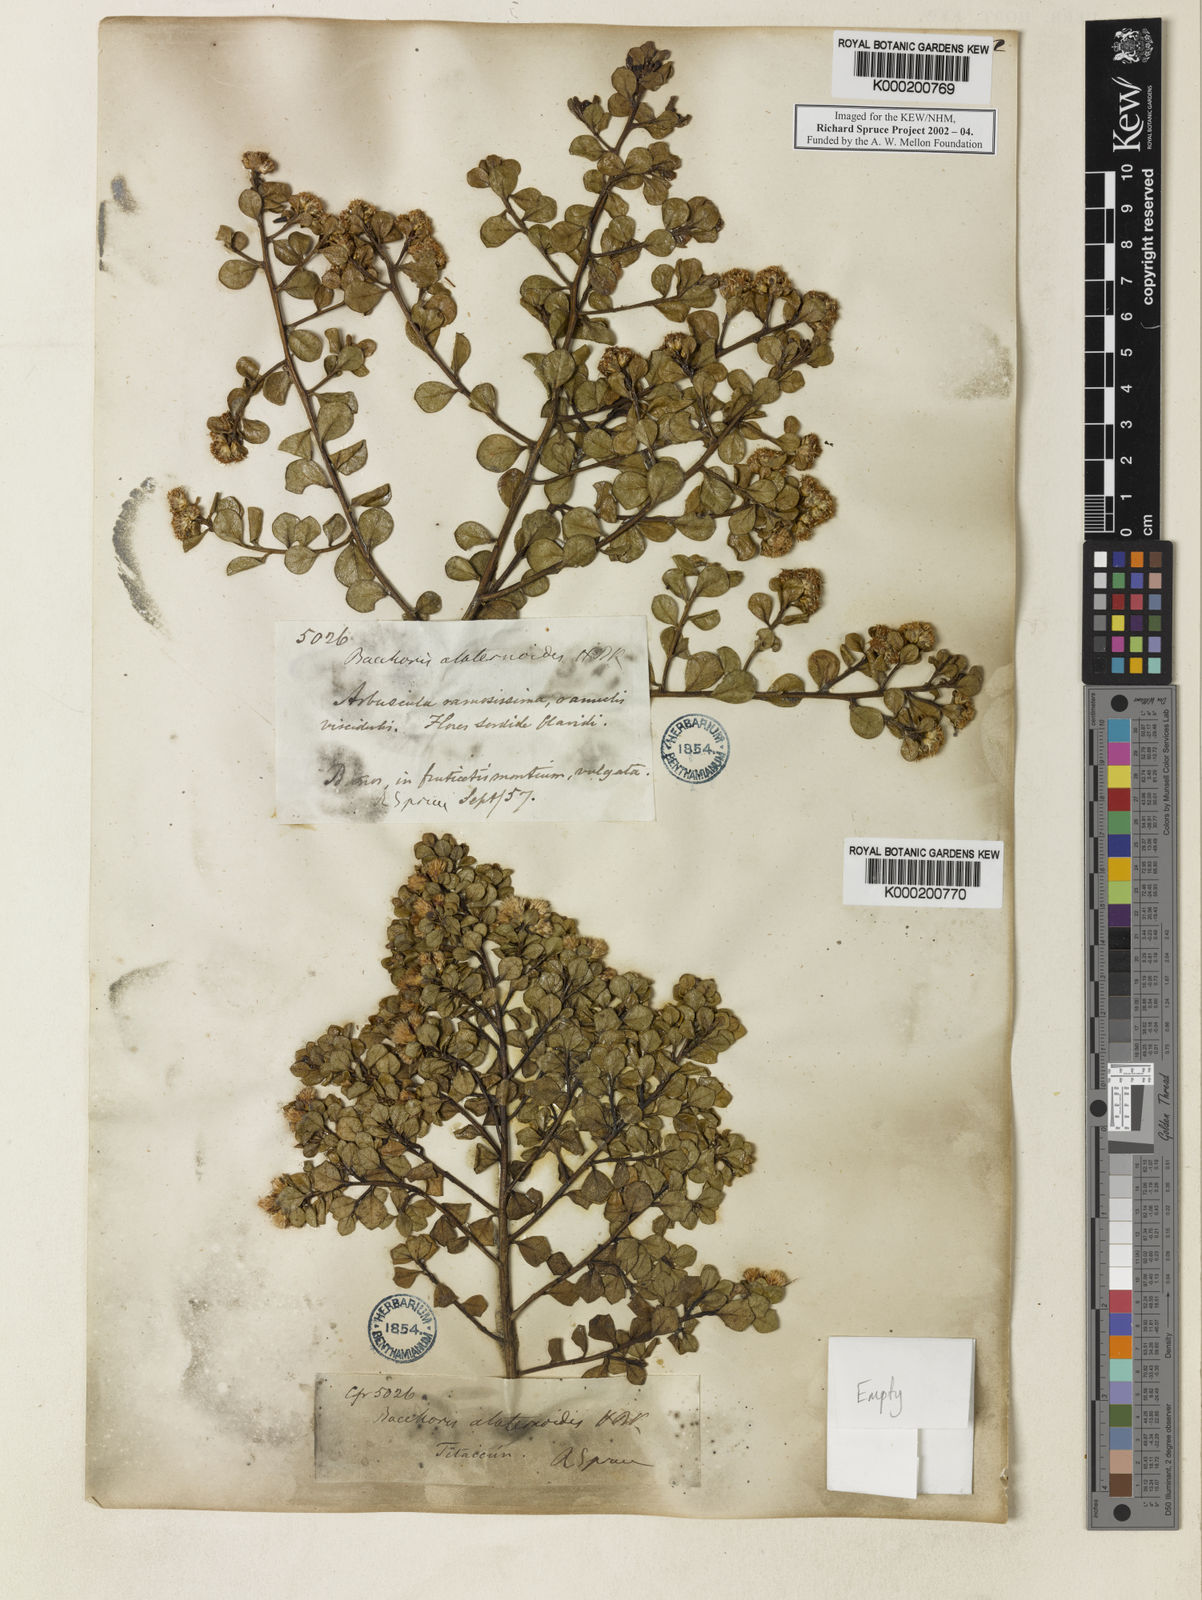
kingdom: Plantae
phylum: Tracheophyta
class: Magnoliopsida
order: Asterales
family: Asteraceae
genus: Baccharis
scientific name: Baccharis alaternoides
